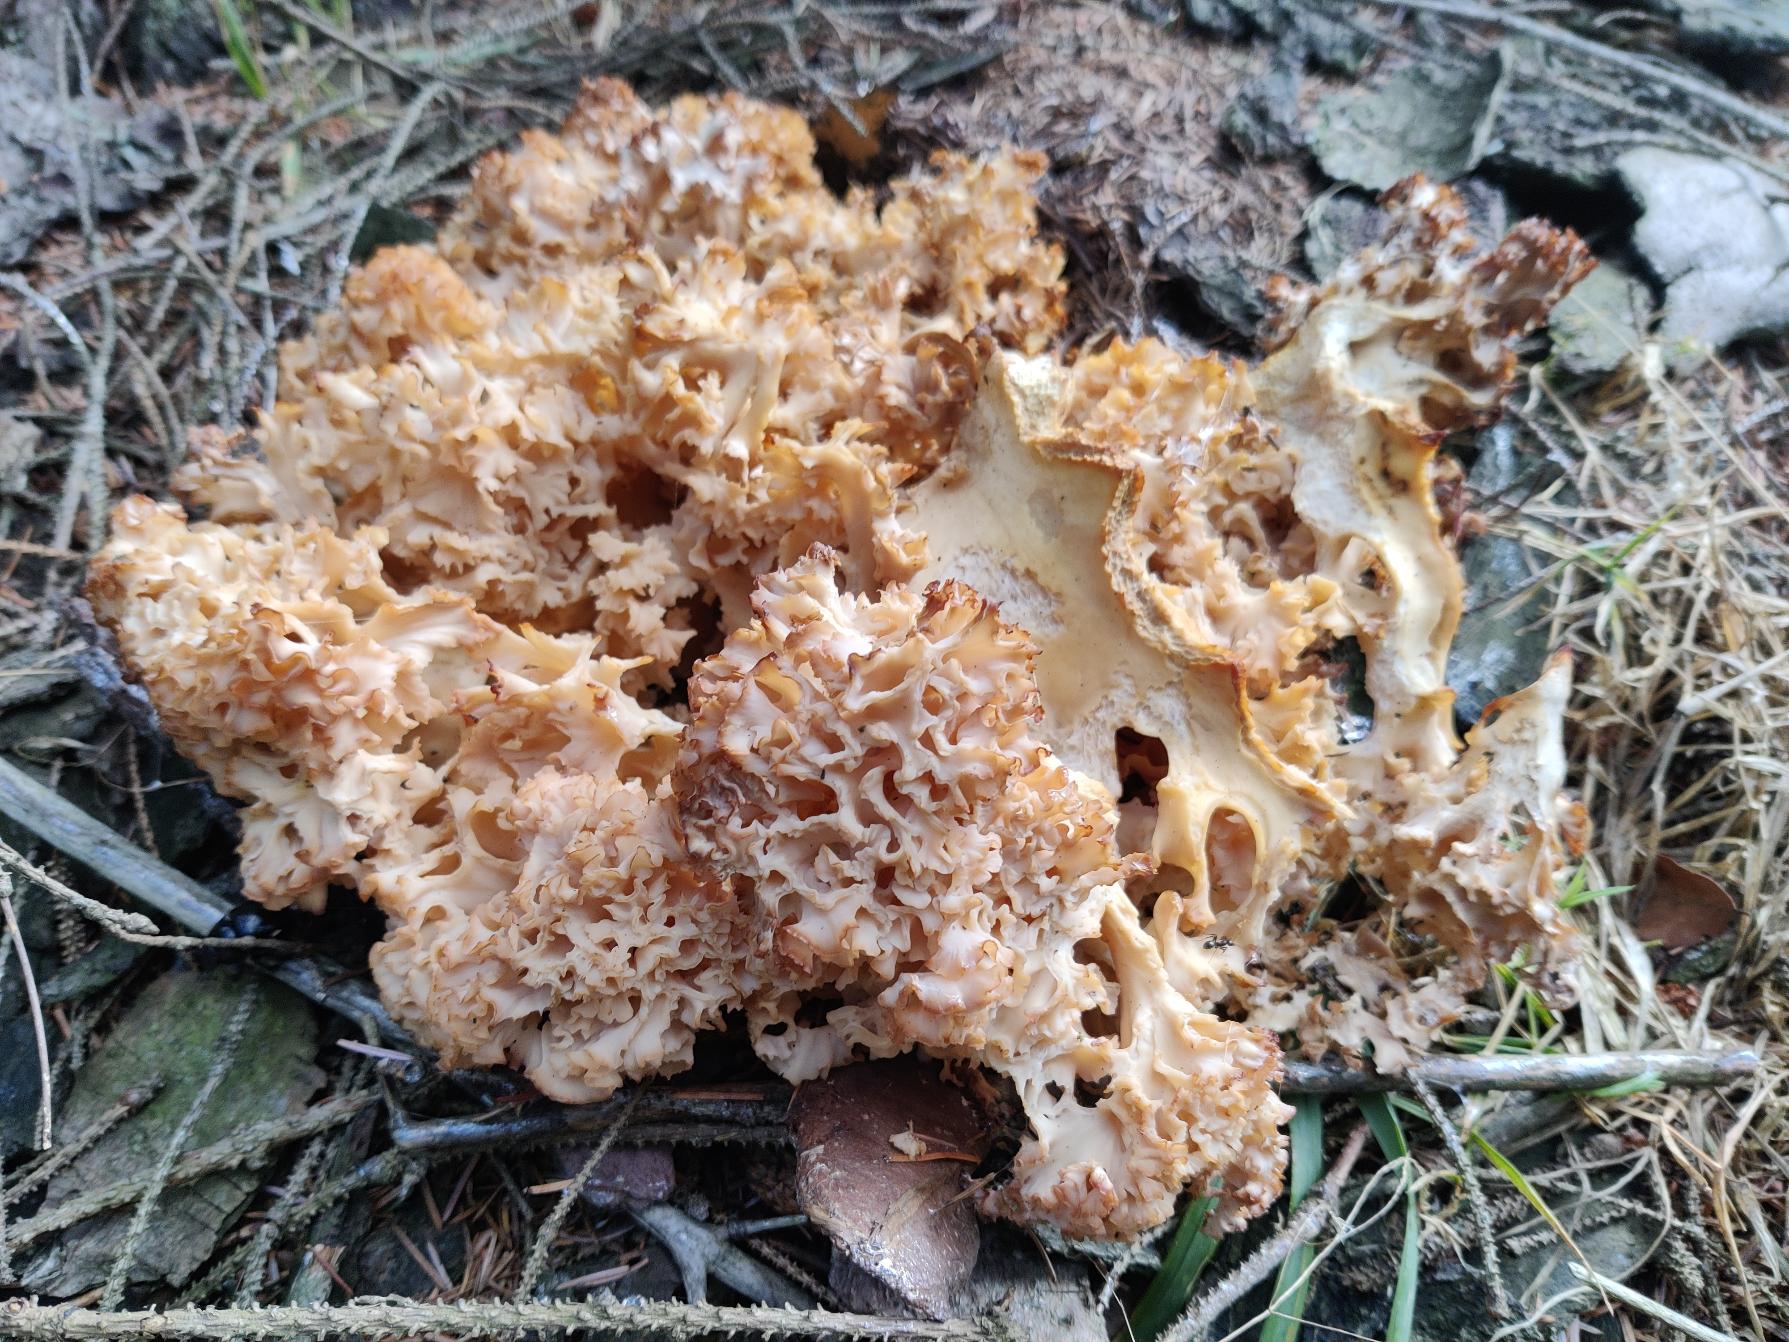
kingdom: Fungi
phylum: Basidiomycota
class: Agaricomycetes
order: Polyporales
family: Sparassidaceae
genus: Sparassis
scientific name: Sparassis crispa
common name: Kruset blomkålssvamp
